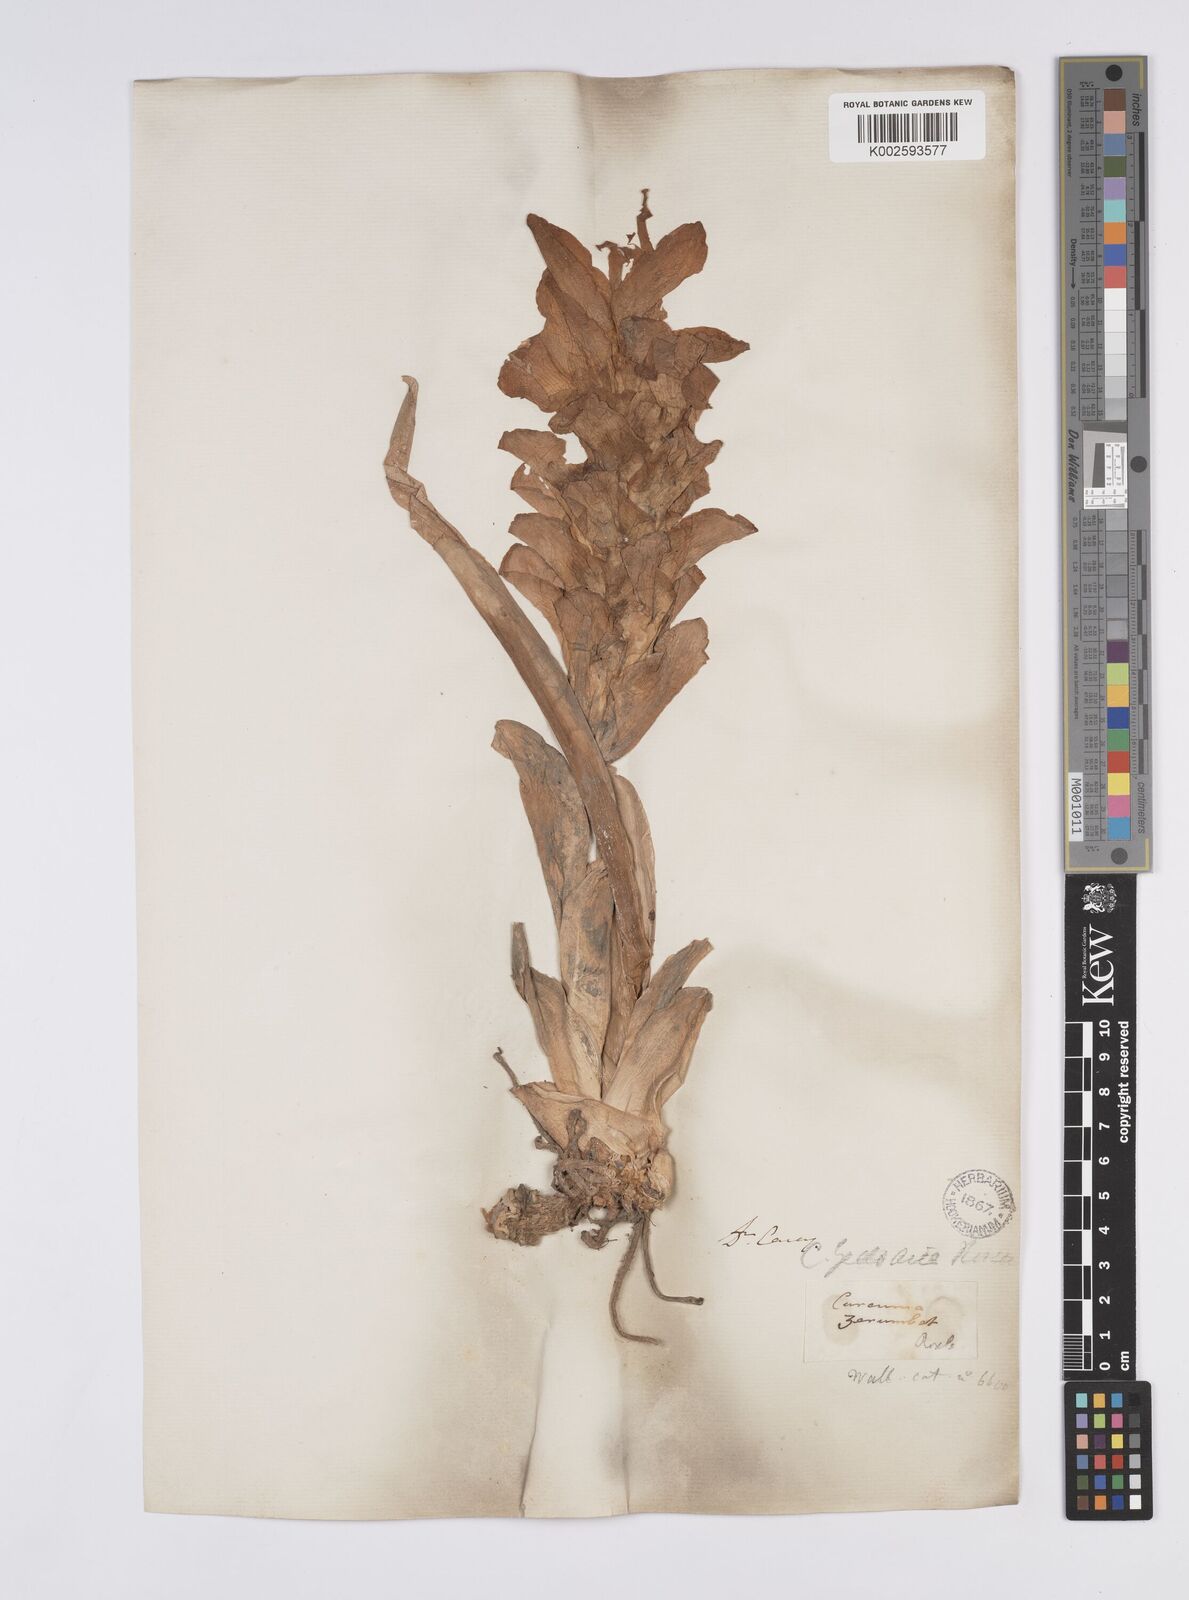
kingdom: Plantae
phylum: Tracheophyta
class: Liliopsida
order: Zingiberales
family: Zingiberaceae
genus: Curcuma
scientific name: Curcuma aromatica
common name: Wild turmeric
